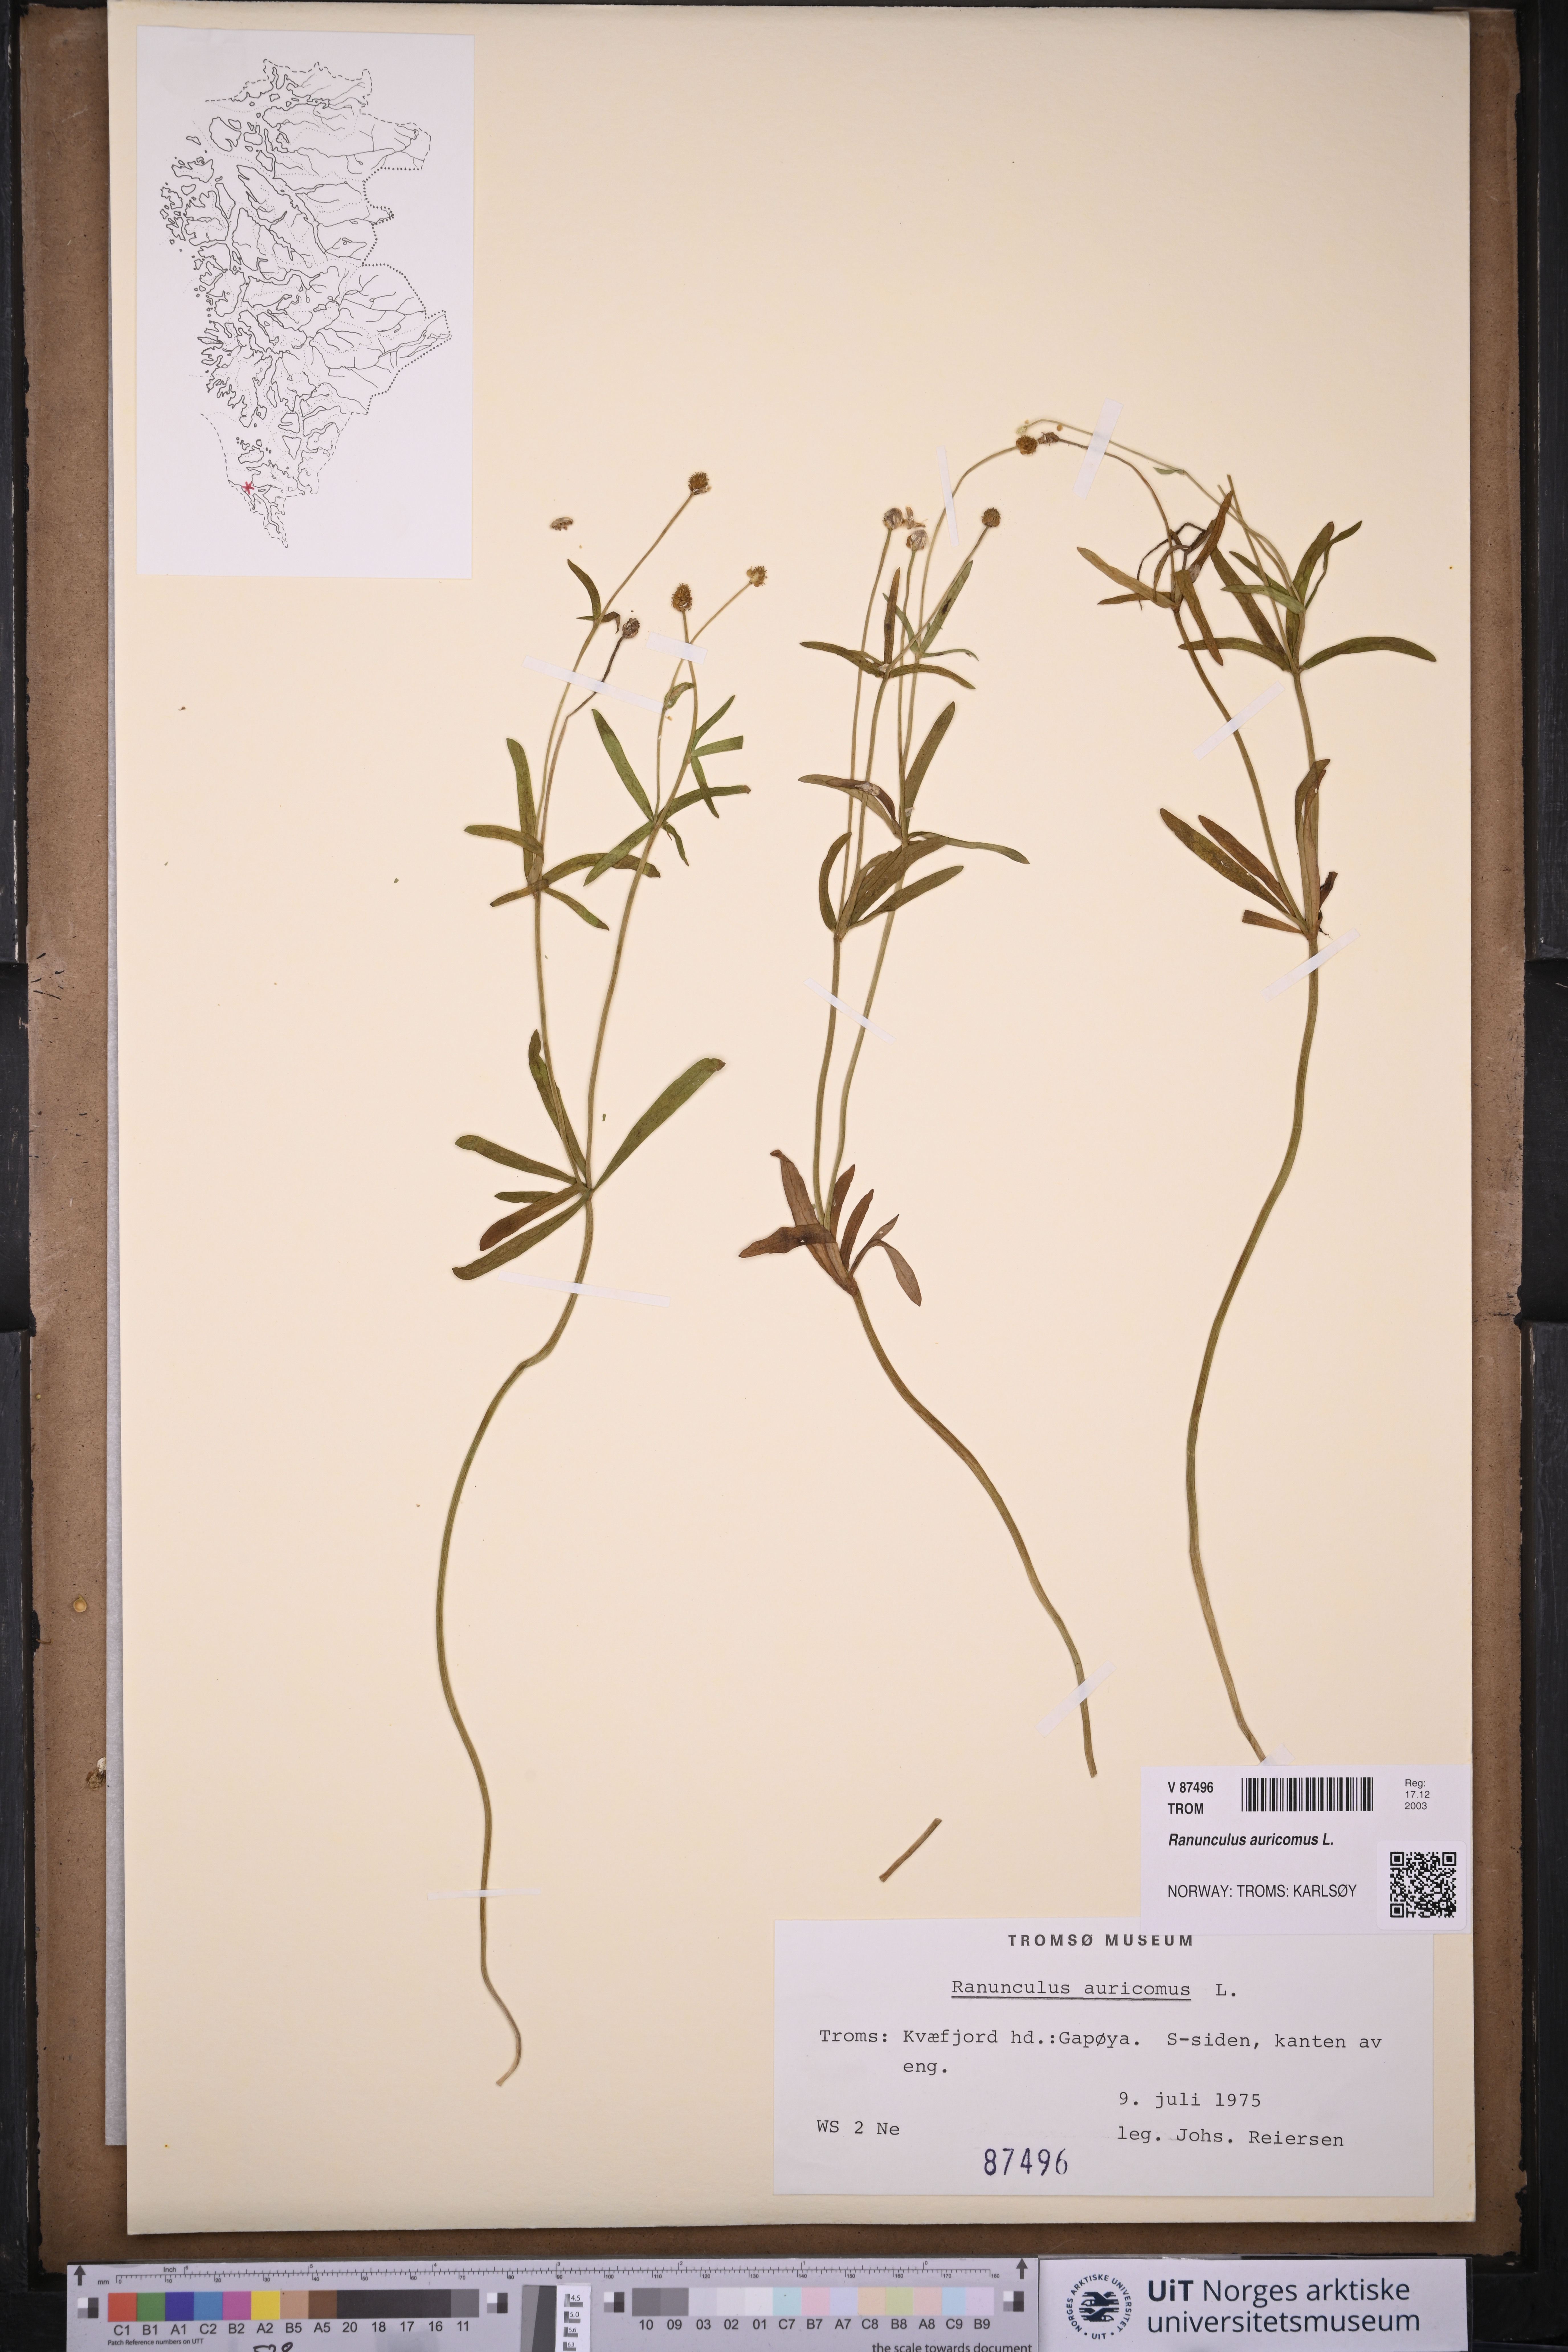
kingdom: Plantae
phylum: Tracheophyta
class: Magnoliopsida
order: Ranunculales
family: Ranunculaceae
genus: Ranunculus
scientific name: Ranunculus auricomus
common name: Goldilocks buttercup
